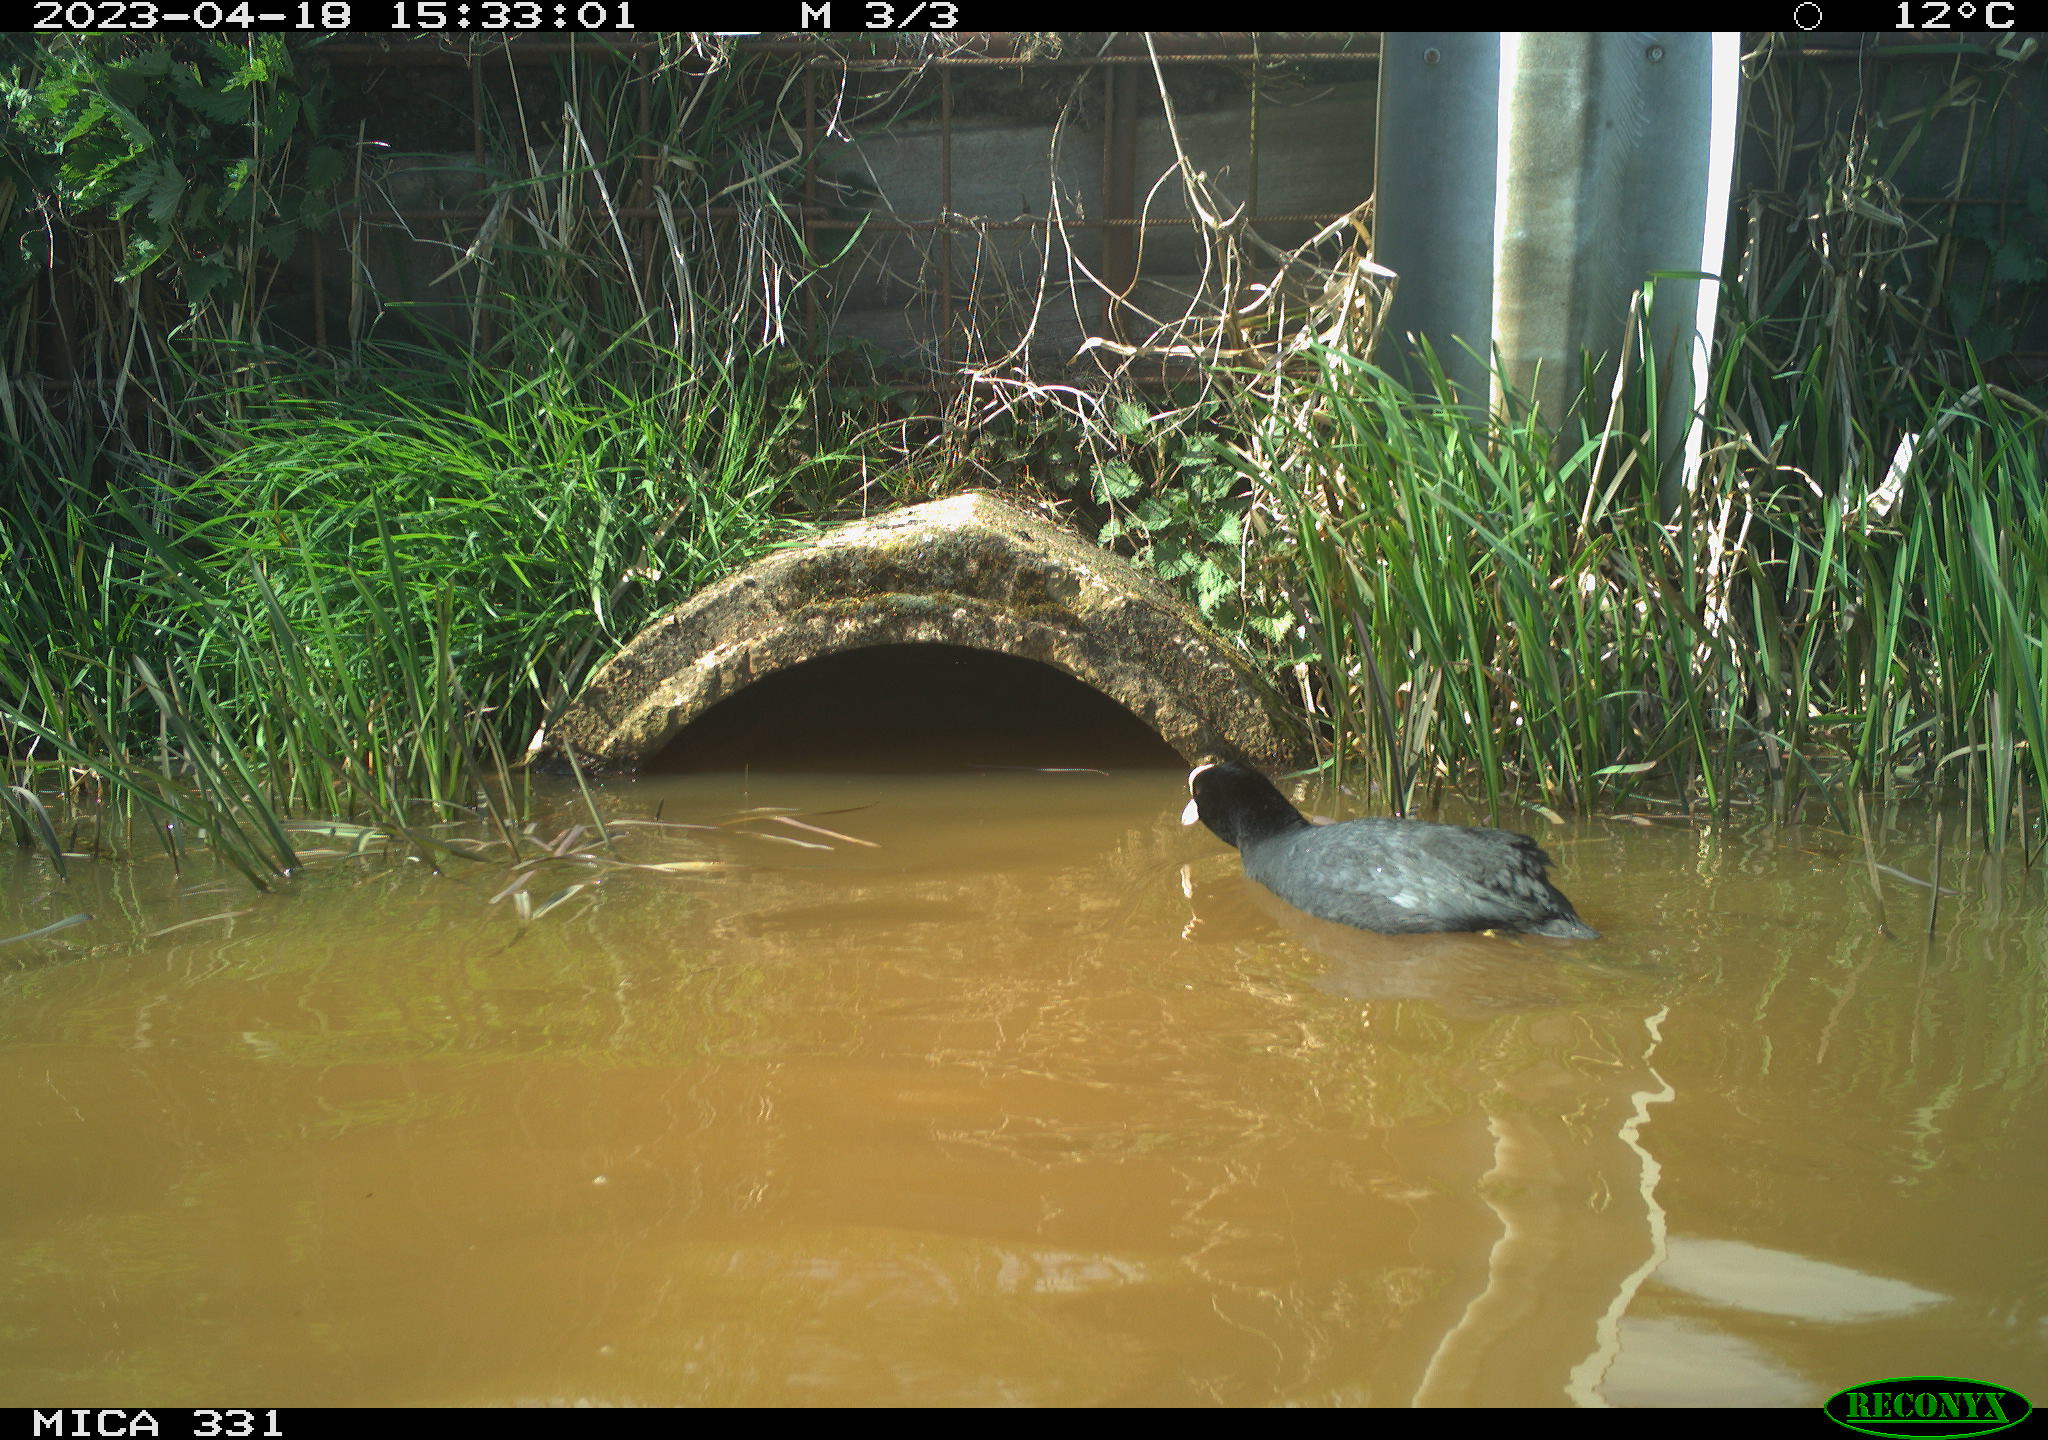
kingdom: Animalia
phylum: Chordata
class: Aves
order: Gruiformes
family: Rallidae
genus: Fulica
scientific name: Fulica atra
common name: Eurasian coot
